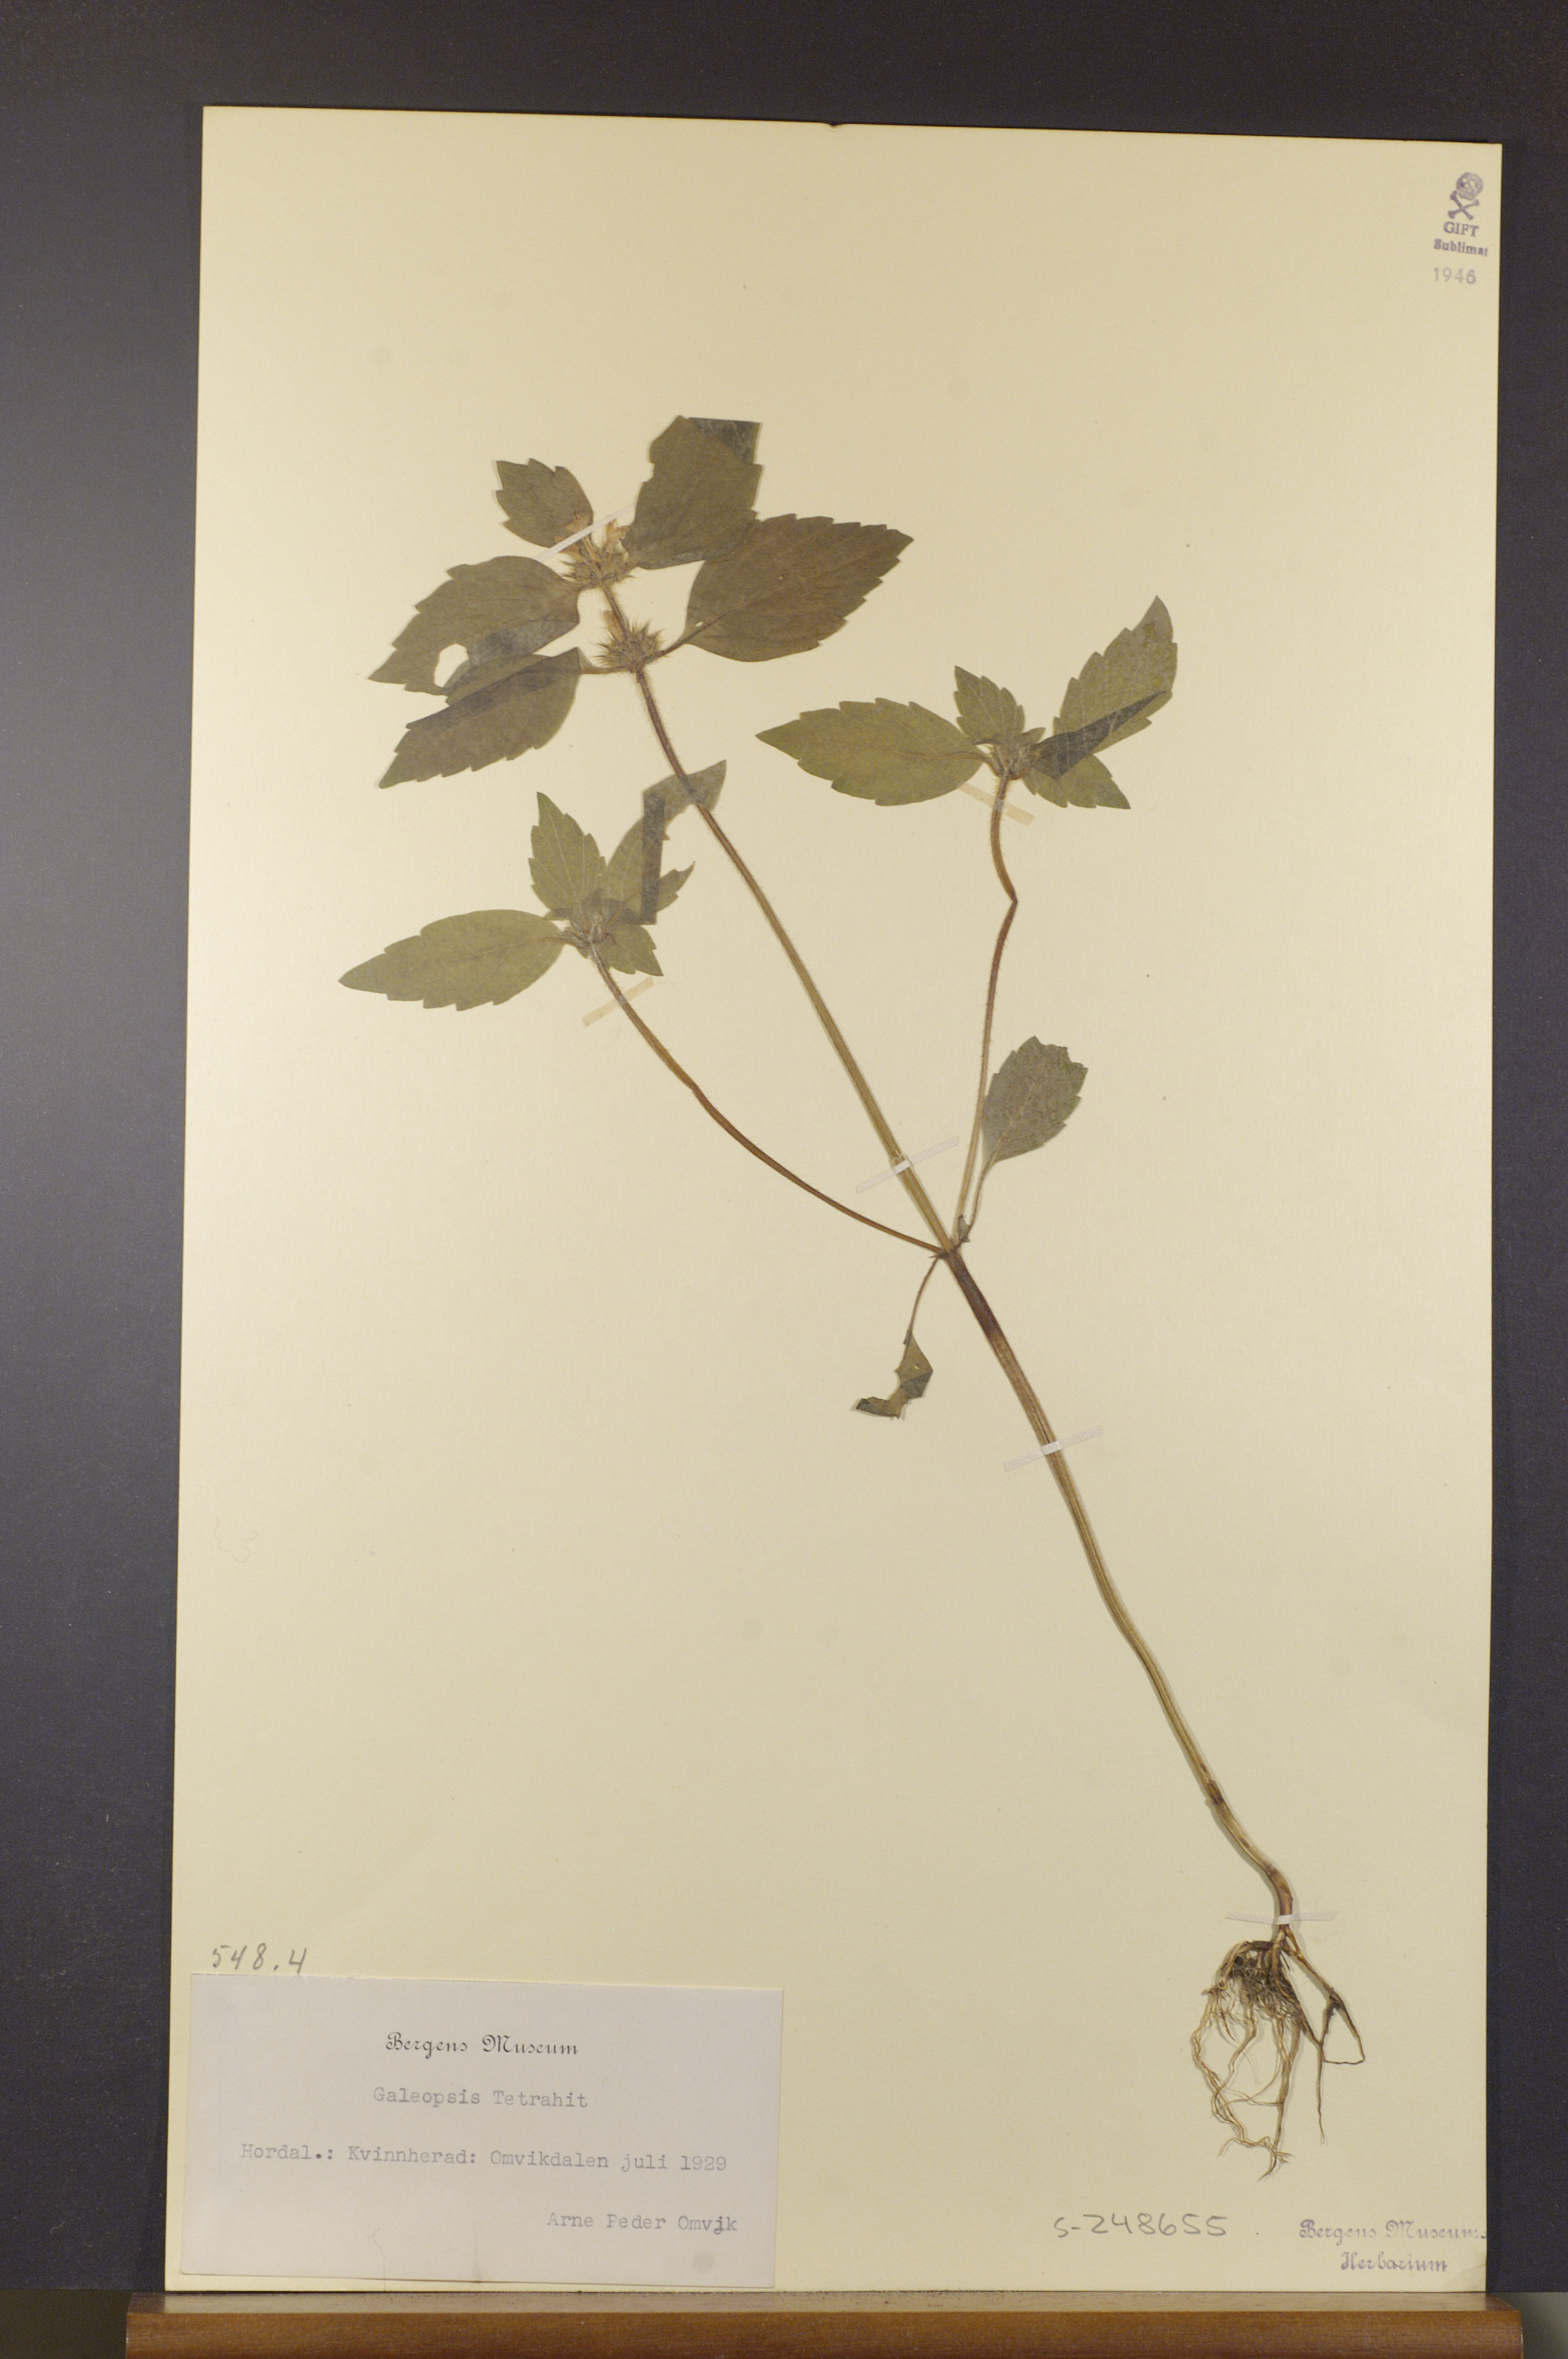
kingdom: Plantae
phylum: Tracheophyta
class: Magnoliopsida
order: Lamiales
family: Lamiaceae
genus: Galeopsis
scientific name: Galeopsis tetrahit
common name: Common hemp-nettle
